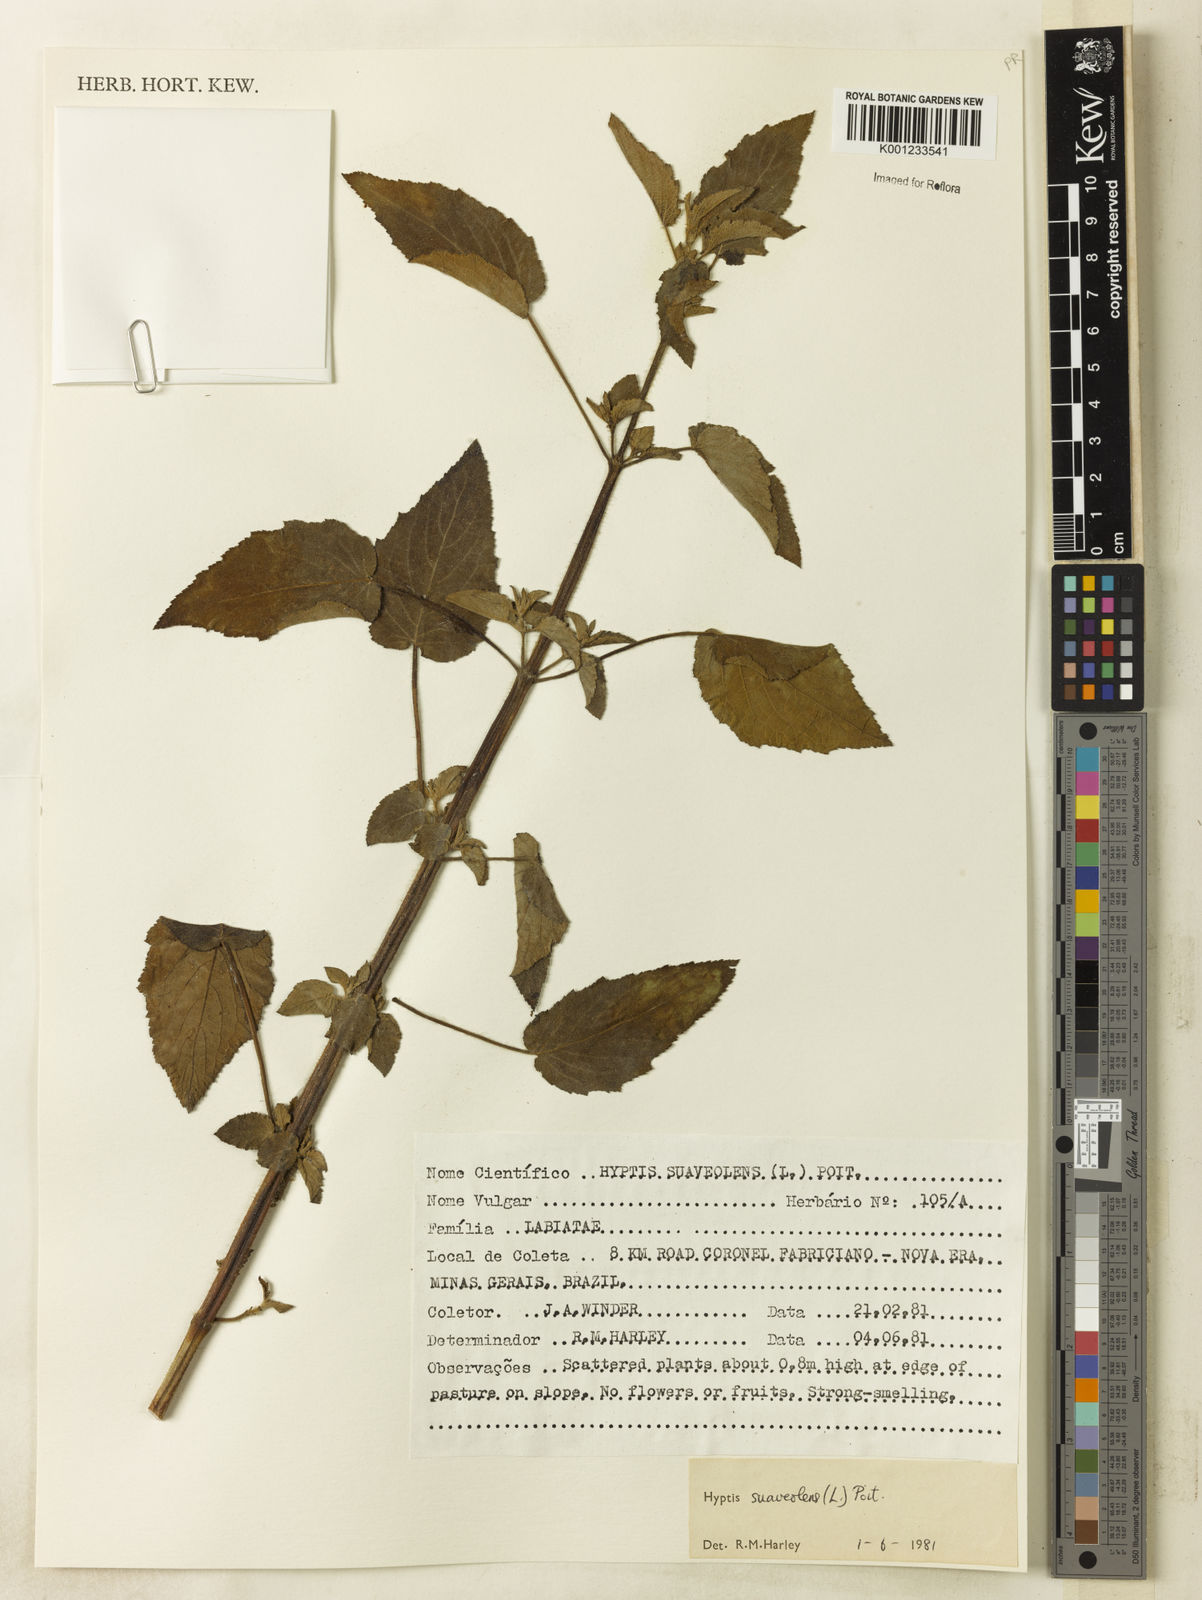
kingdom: Plantae
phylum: Tracheophyta
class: Magnoliopsida
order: Lamiales
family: Lamiaceae
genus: Mesosphaerum
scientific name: Mesosphaerum suaveolens
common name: Pignut
